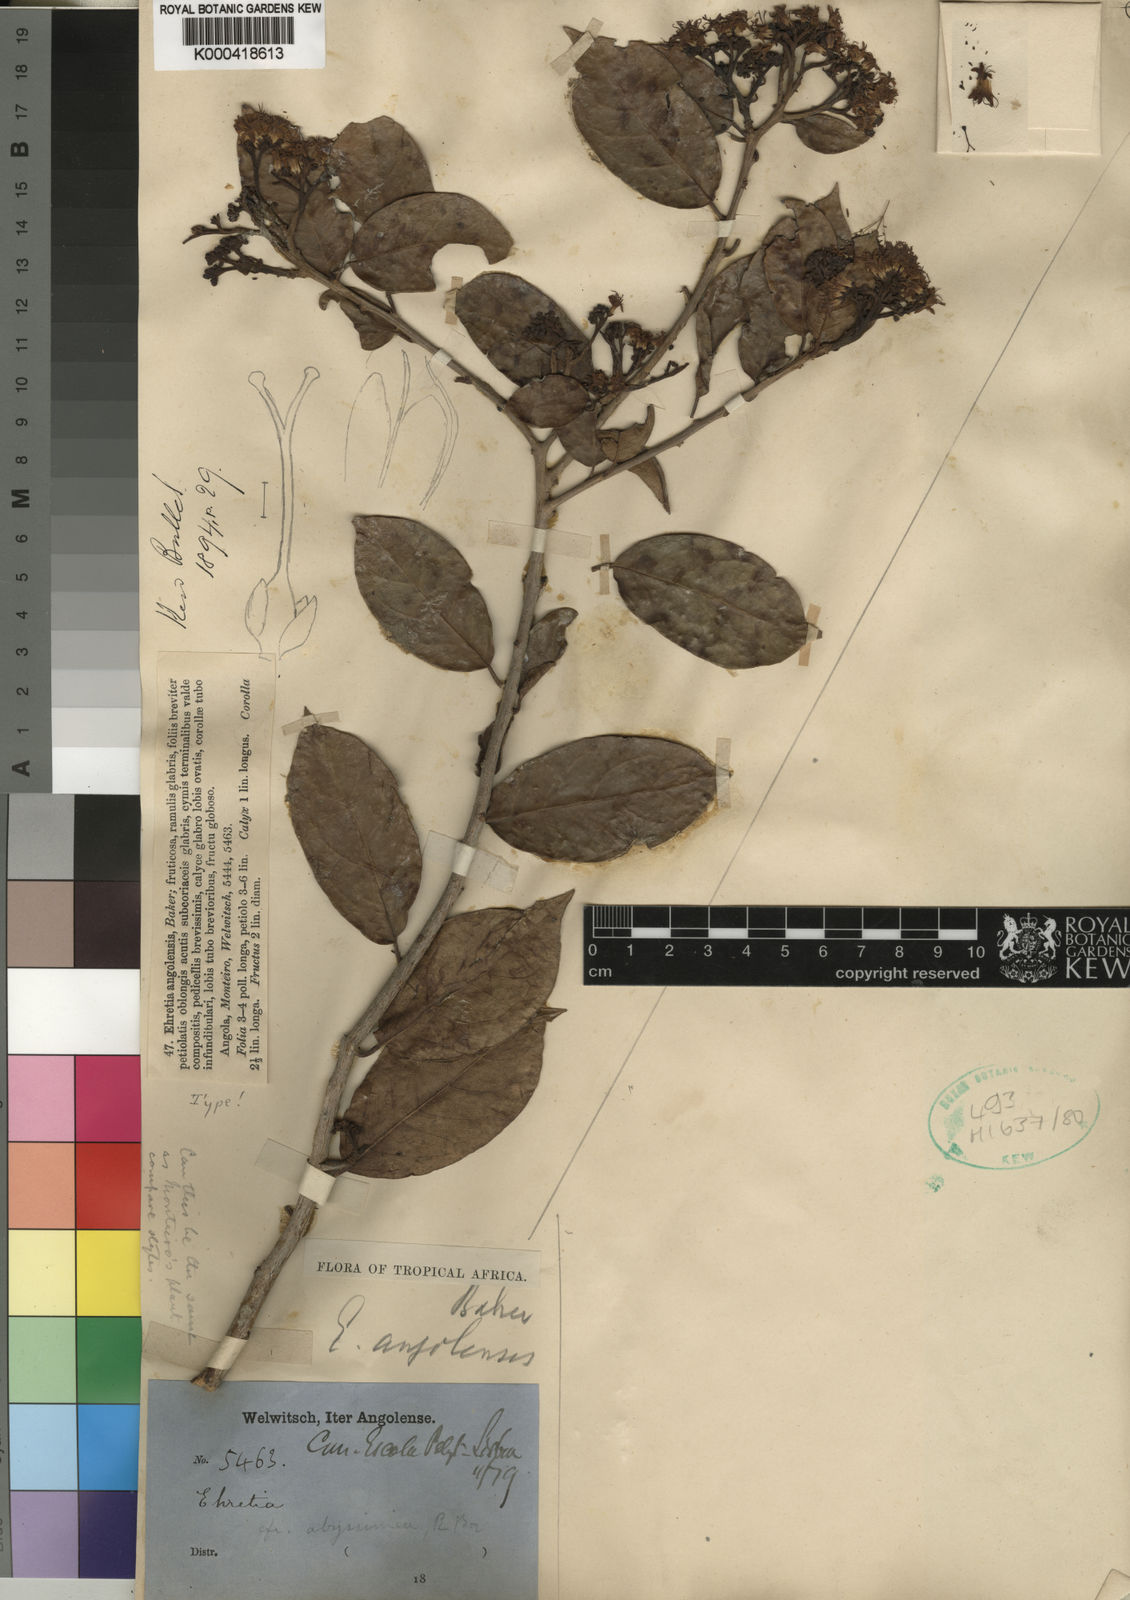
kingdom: Plantae
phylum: Tracheophyta
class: Magnoliopsida
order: Boraginales
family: Ehretiaceae
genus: Ehretia
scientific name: Ehretia angolensis
